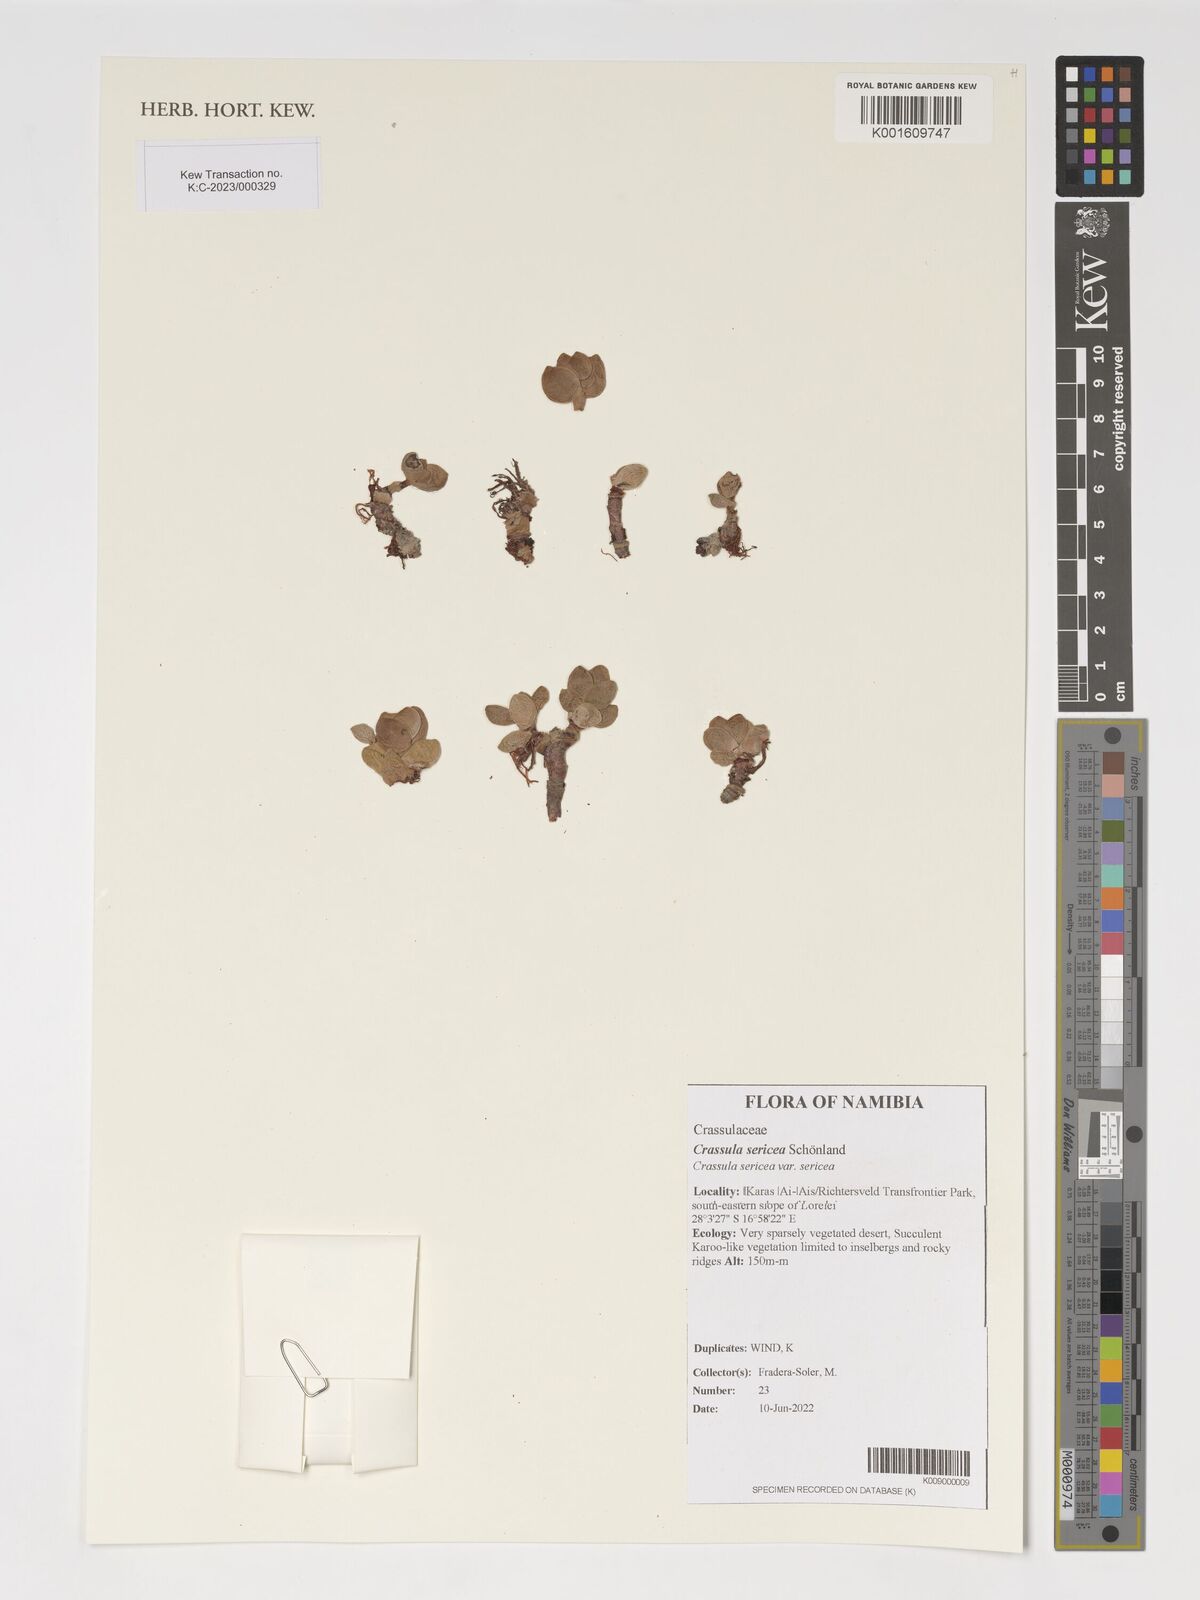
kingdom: Plantae
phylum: Tracheophyta
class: Magnoliopsida
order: Saxifragales
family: Crassulaceae
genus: Crassula
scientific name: Crassula sericea
